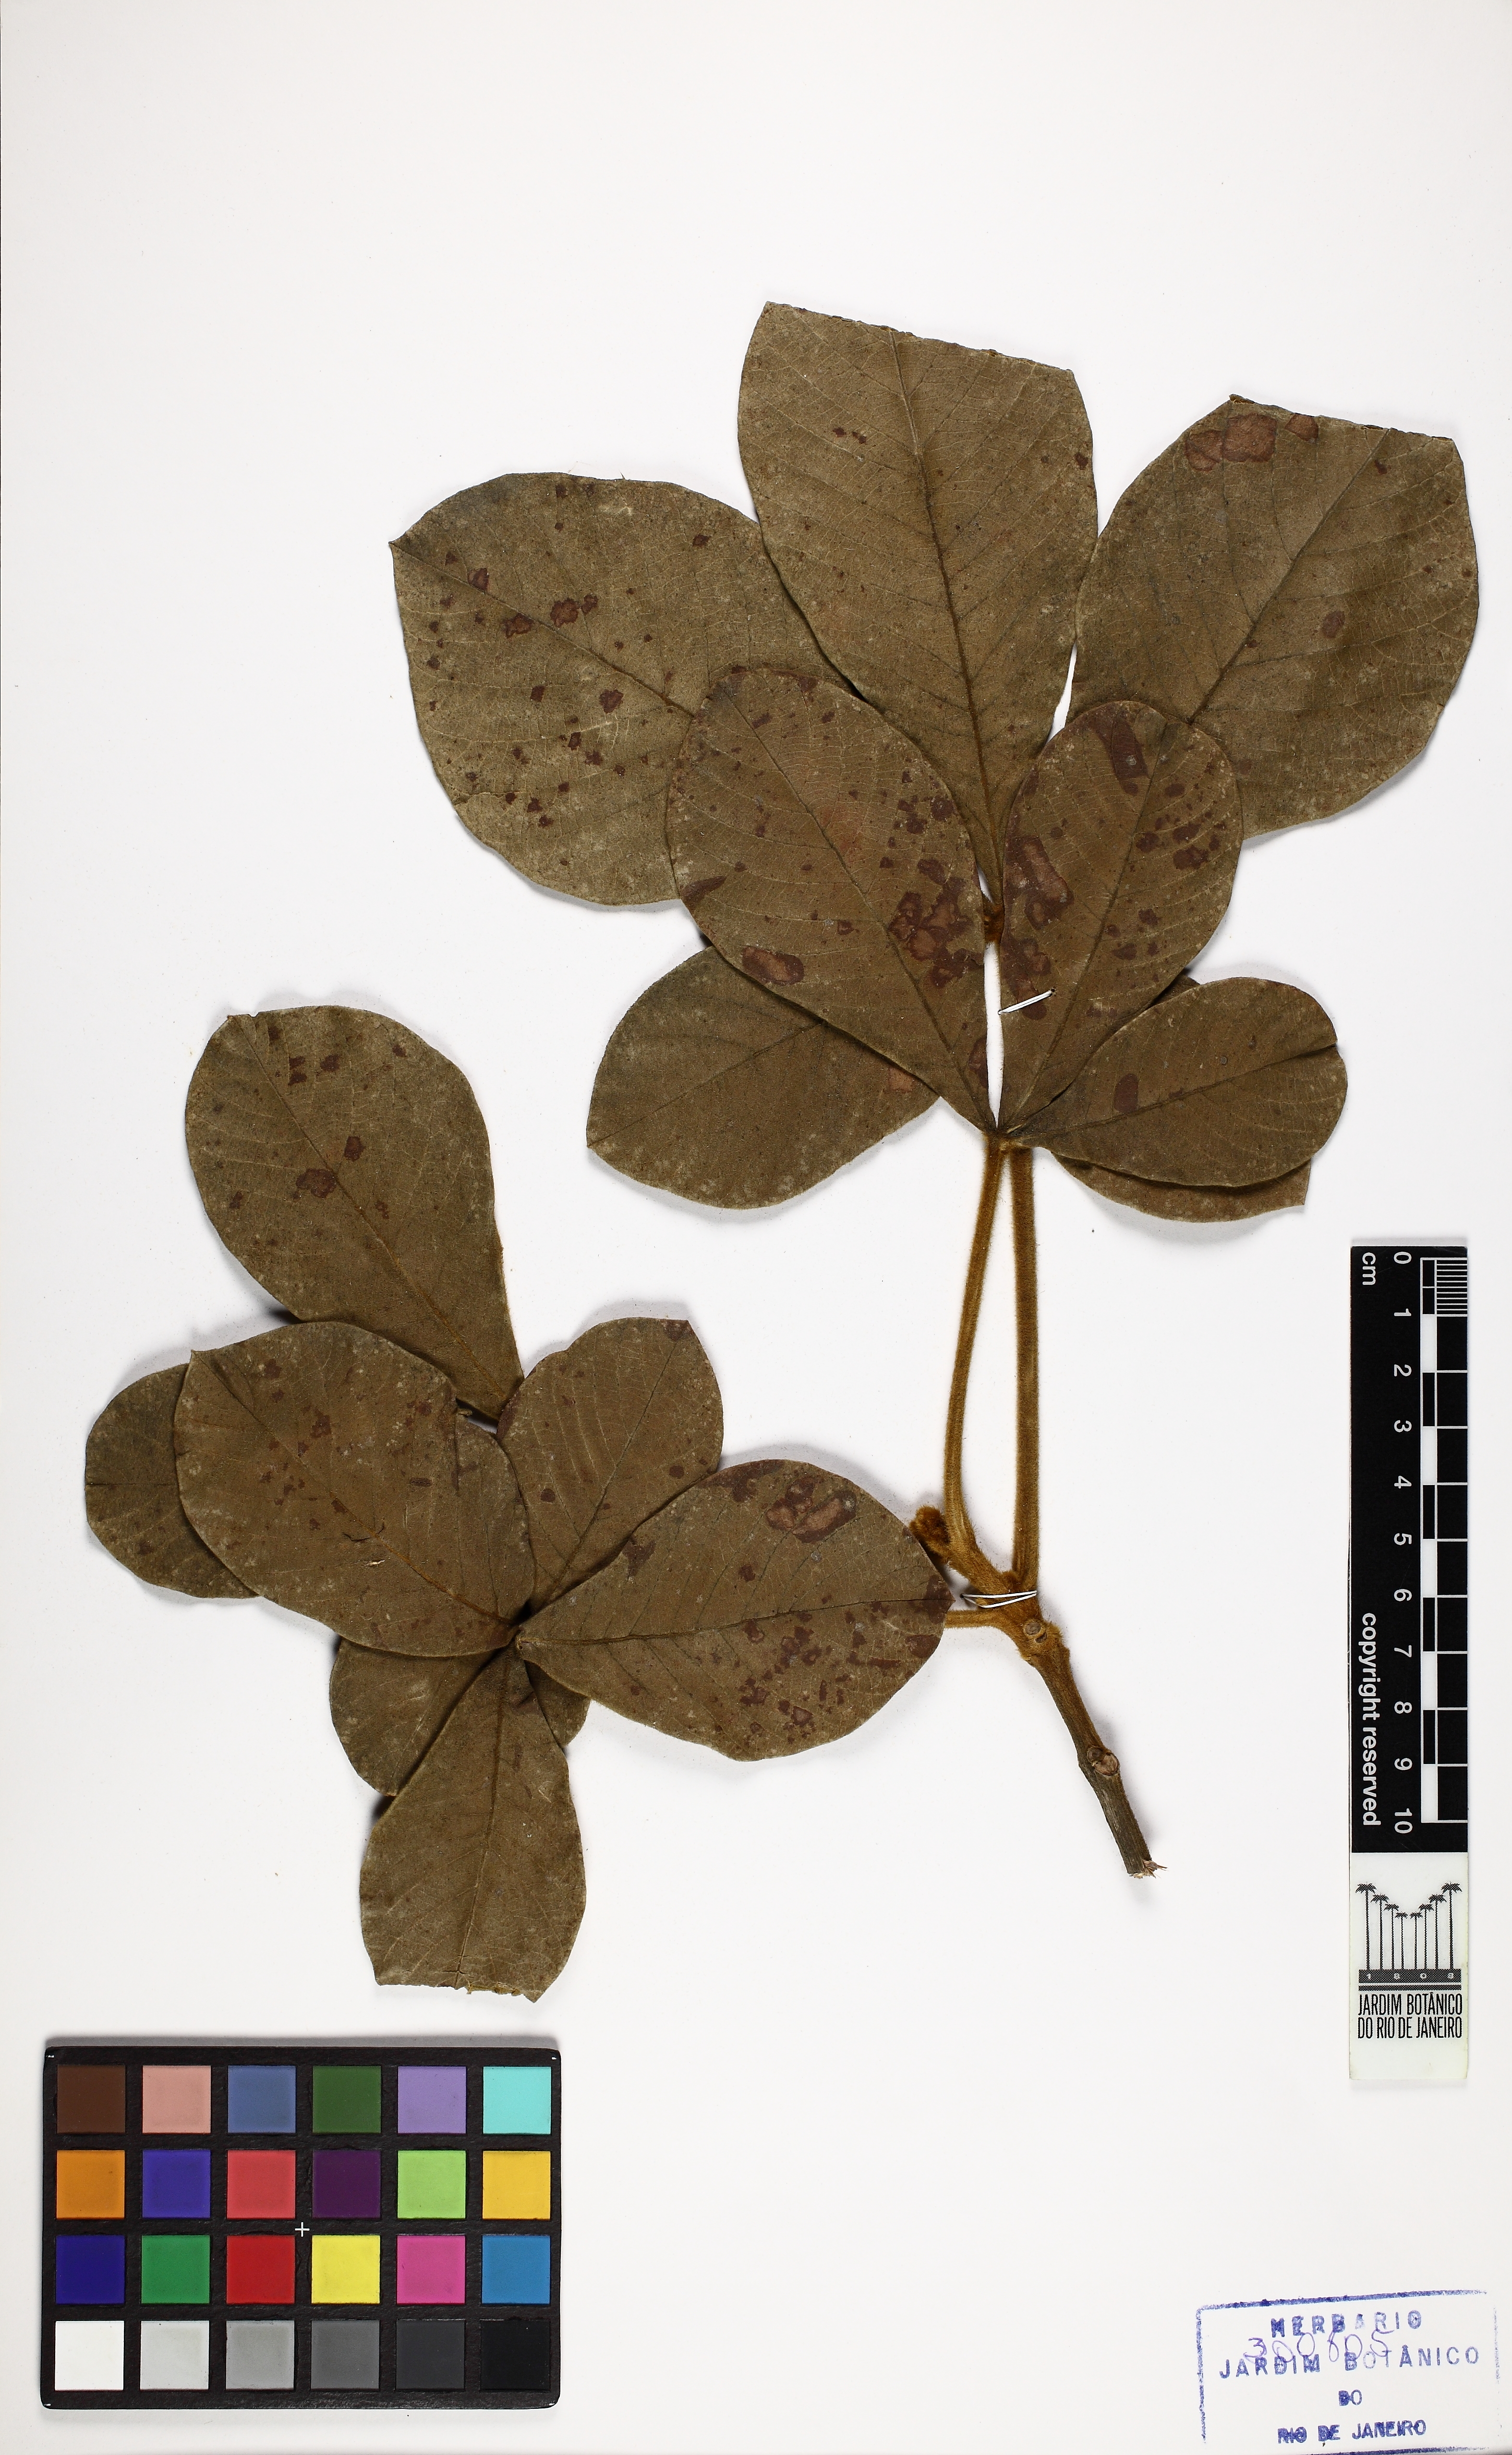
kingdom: Plantae
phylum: Tracheophyta
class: Magnoliopsida
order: Lamiales
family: Lamiaceae
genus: Vitex
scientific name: Vitex flavens
